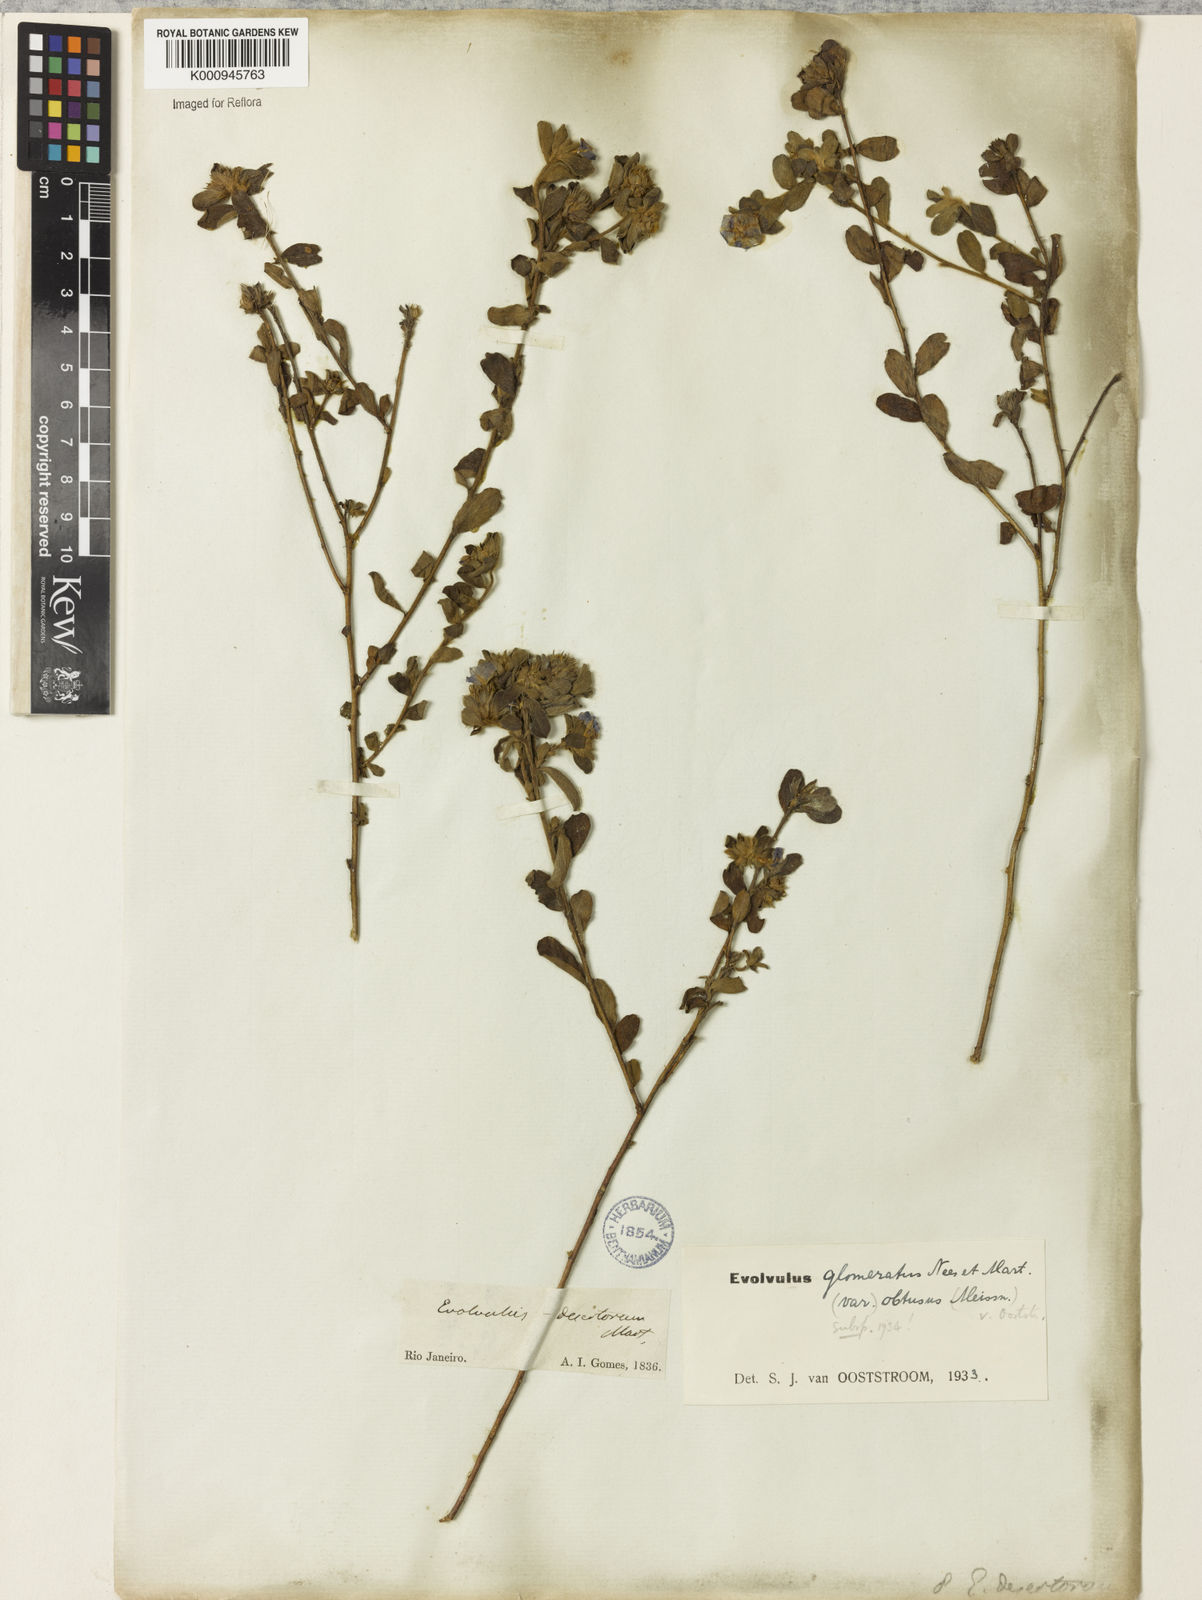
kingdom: Plantae
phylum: Tracheophyta
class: Magnoliopsida
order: Solanales
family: Convolvulaceae
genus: Evolvulus
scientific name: Evolvulus glomeratus
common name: Brazilian dwarf morning-glory
